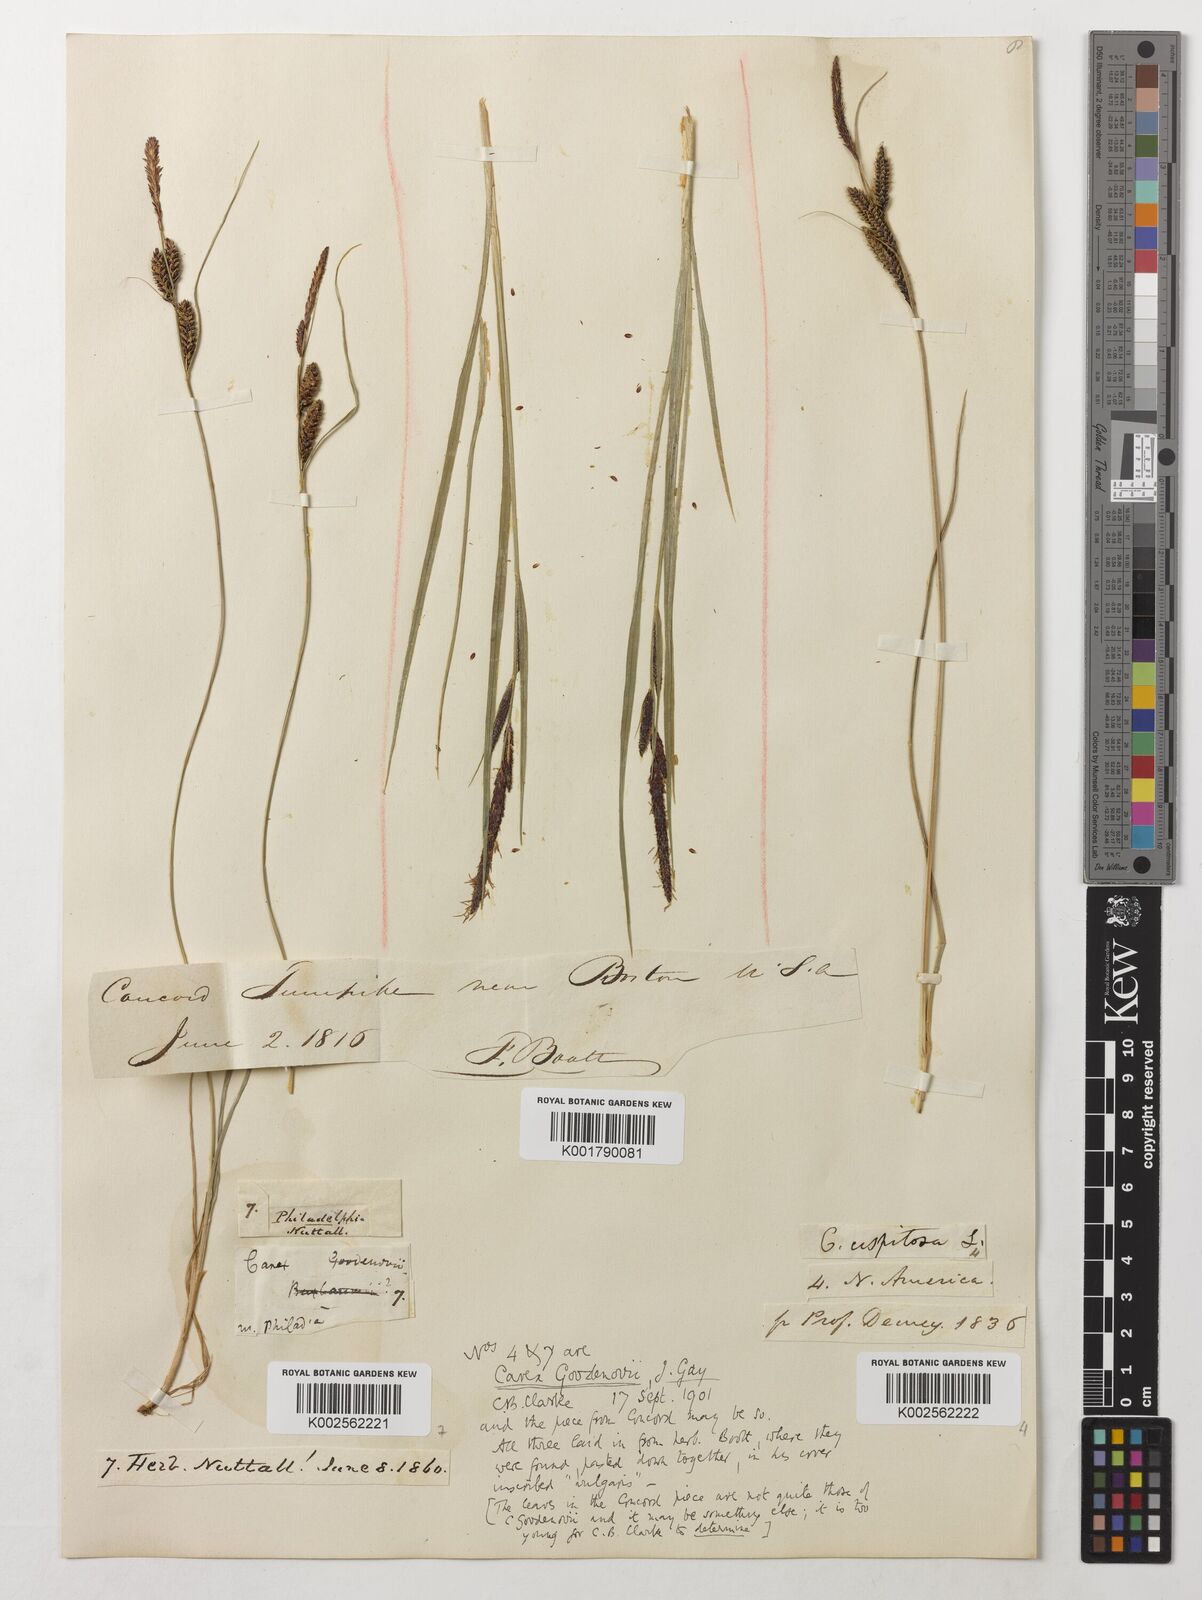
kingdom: Plantae
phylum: Tracheophyta
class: Liliopsida
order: Poales
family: Cyperaceae
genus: Carex
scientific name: Carex nigra
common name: Common sedge
